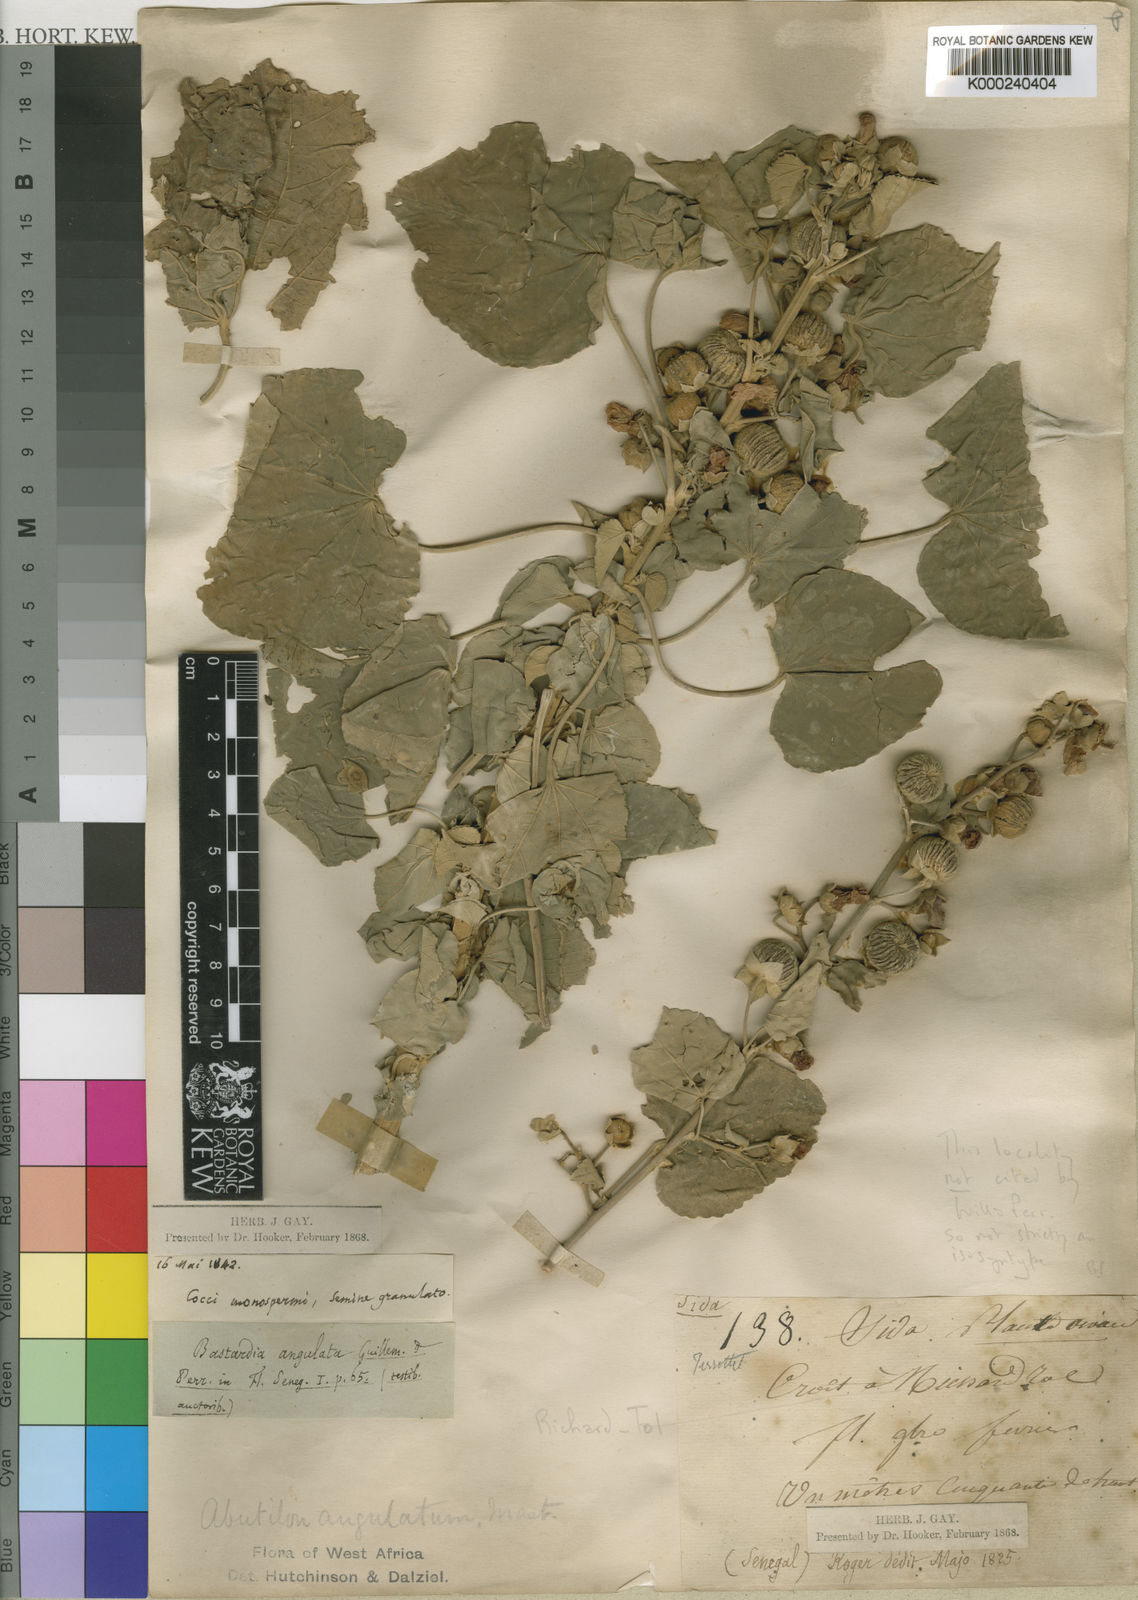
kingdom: Plantae
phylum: Tracheophyta
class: Magnoliopsida
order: Malvales
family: Malvaceae
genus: Abutilon
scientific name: Abutilon angulatum
